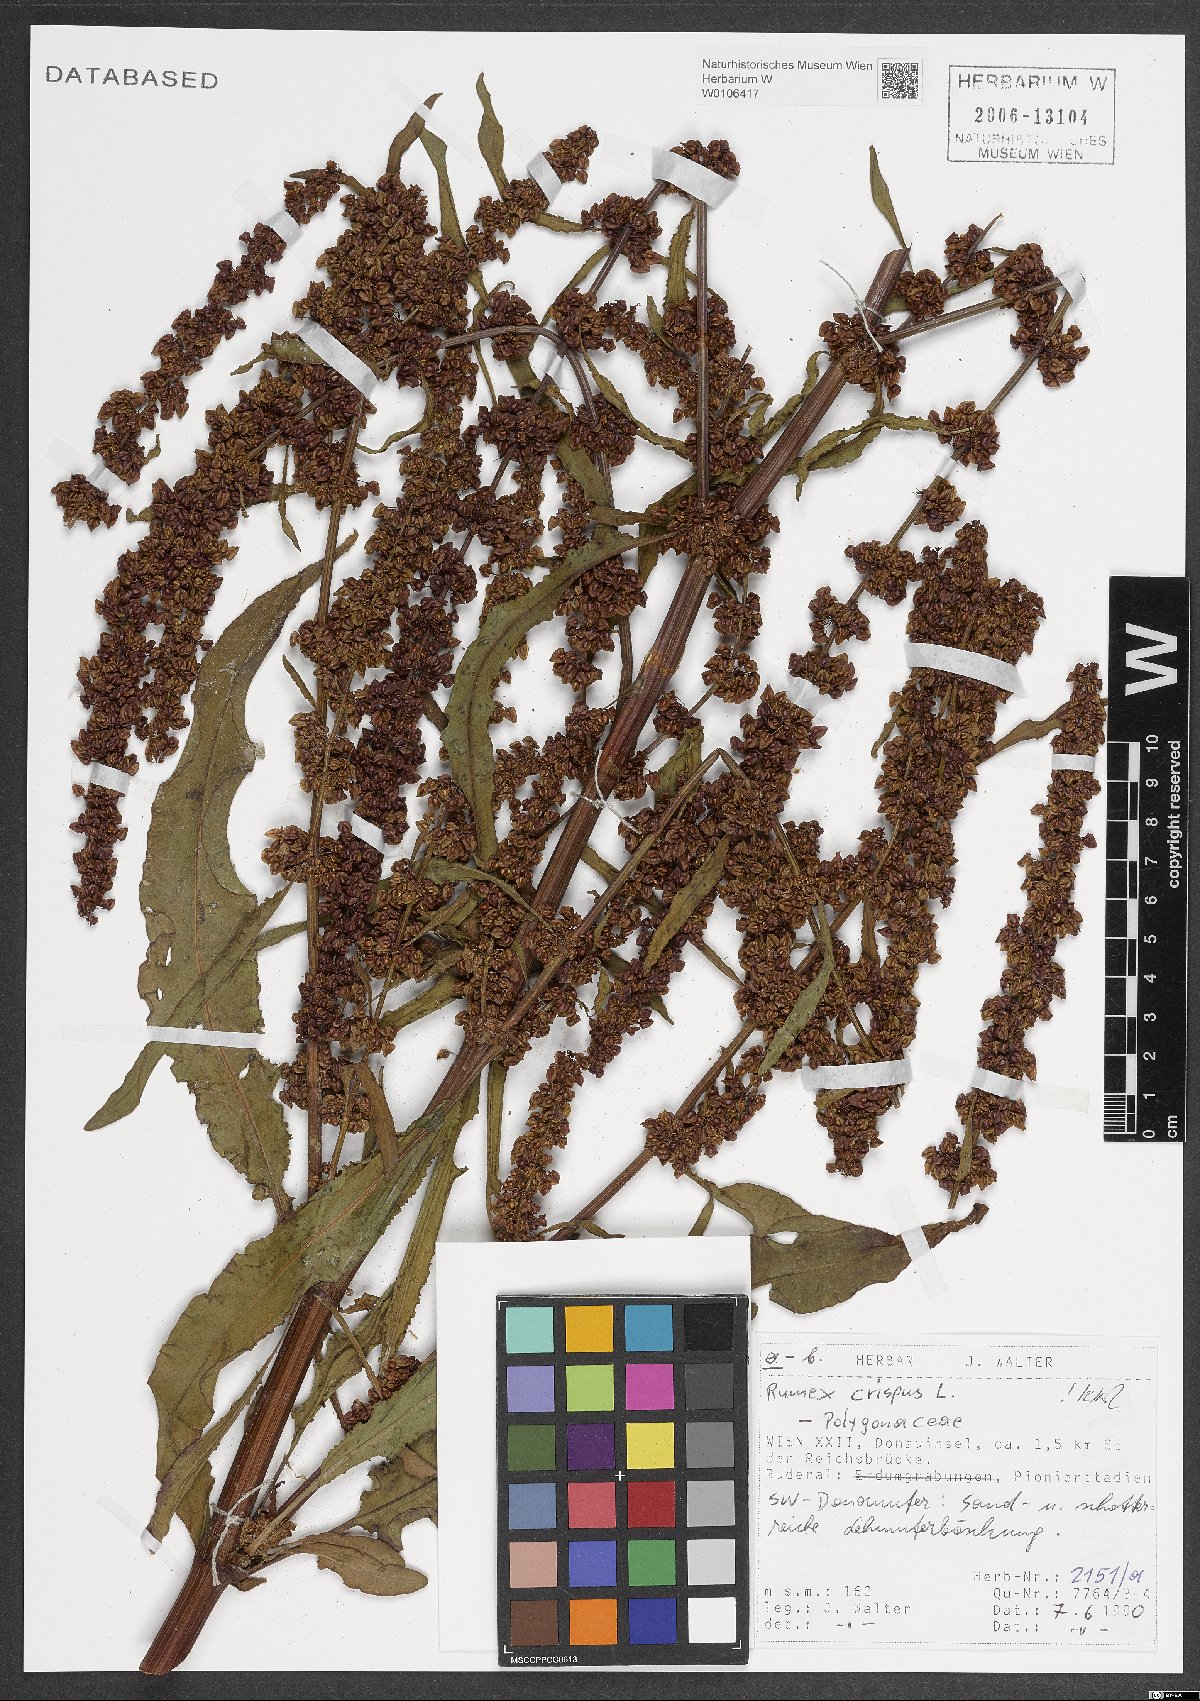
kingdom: Plantae
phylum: Tracheophyta
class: Magnoliopsida
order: Caryophyllales
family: Polygonaceae
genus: Rumex
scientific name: Rumex crispus
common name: Curled dock
